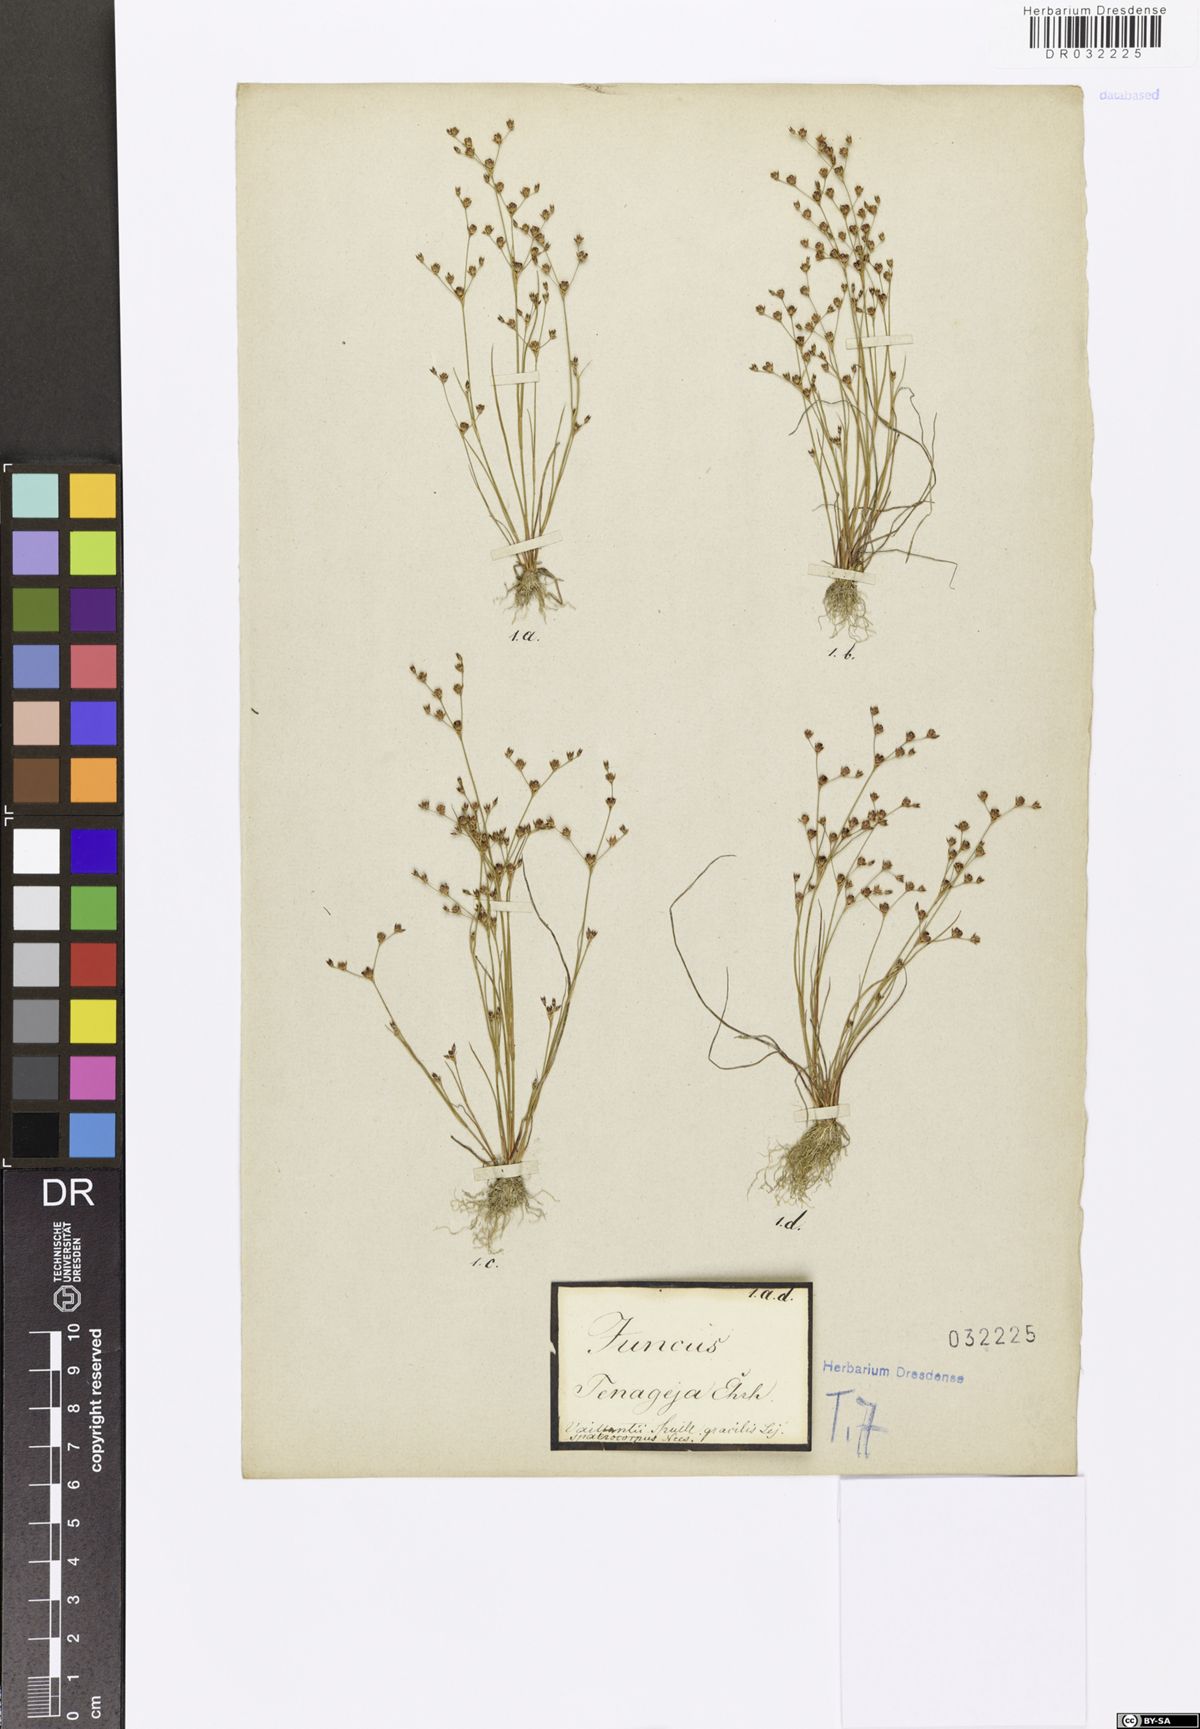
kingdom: Plantae
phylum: Tracheophyta
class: Liliopsida
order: Poales
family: Juncaceae
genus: Juncus
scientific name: Juncus tenageia
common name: Sand rush
